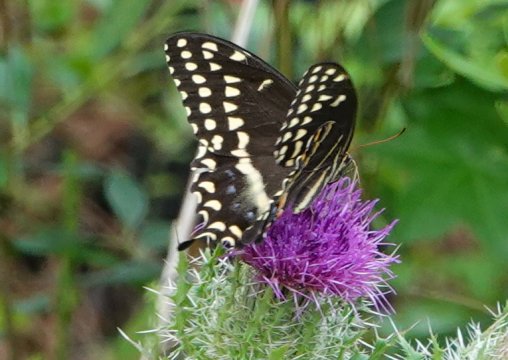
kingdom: Animalia
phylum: Arthropoda
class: Insecta
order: Lepidoptera
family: Papilionidae
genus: Pterourus
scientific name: Pterourus palamedes
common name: Palamedes Swallowtail
